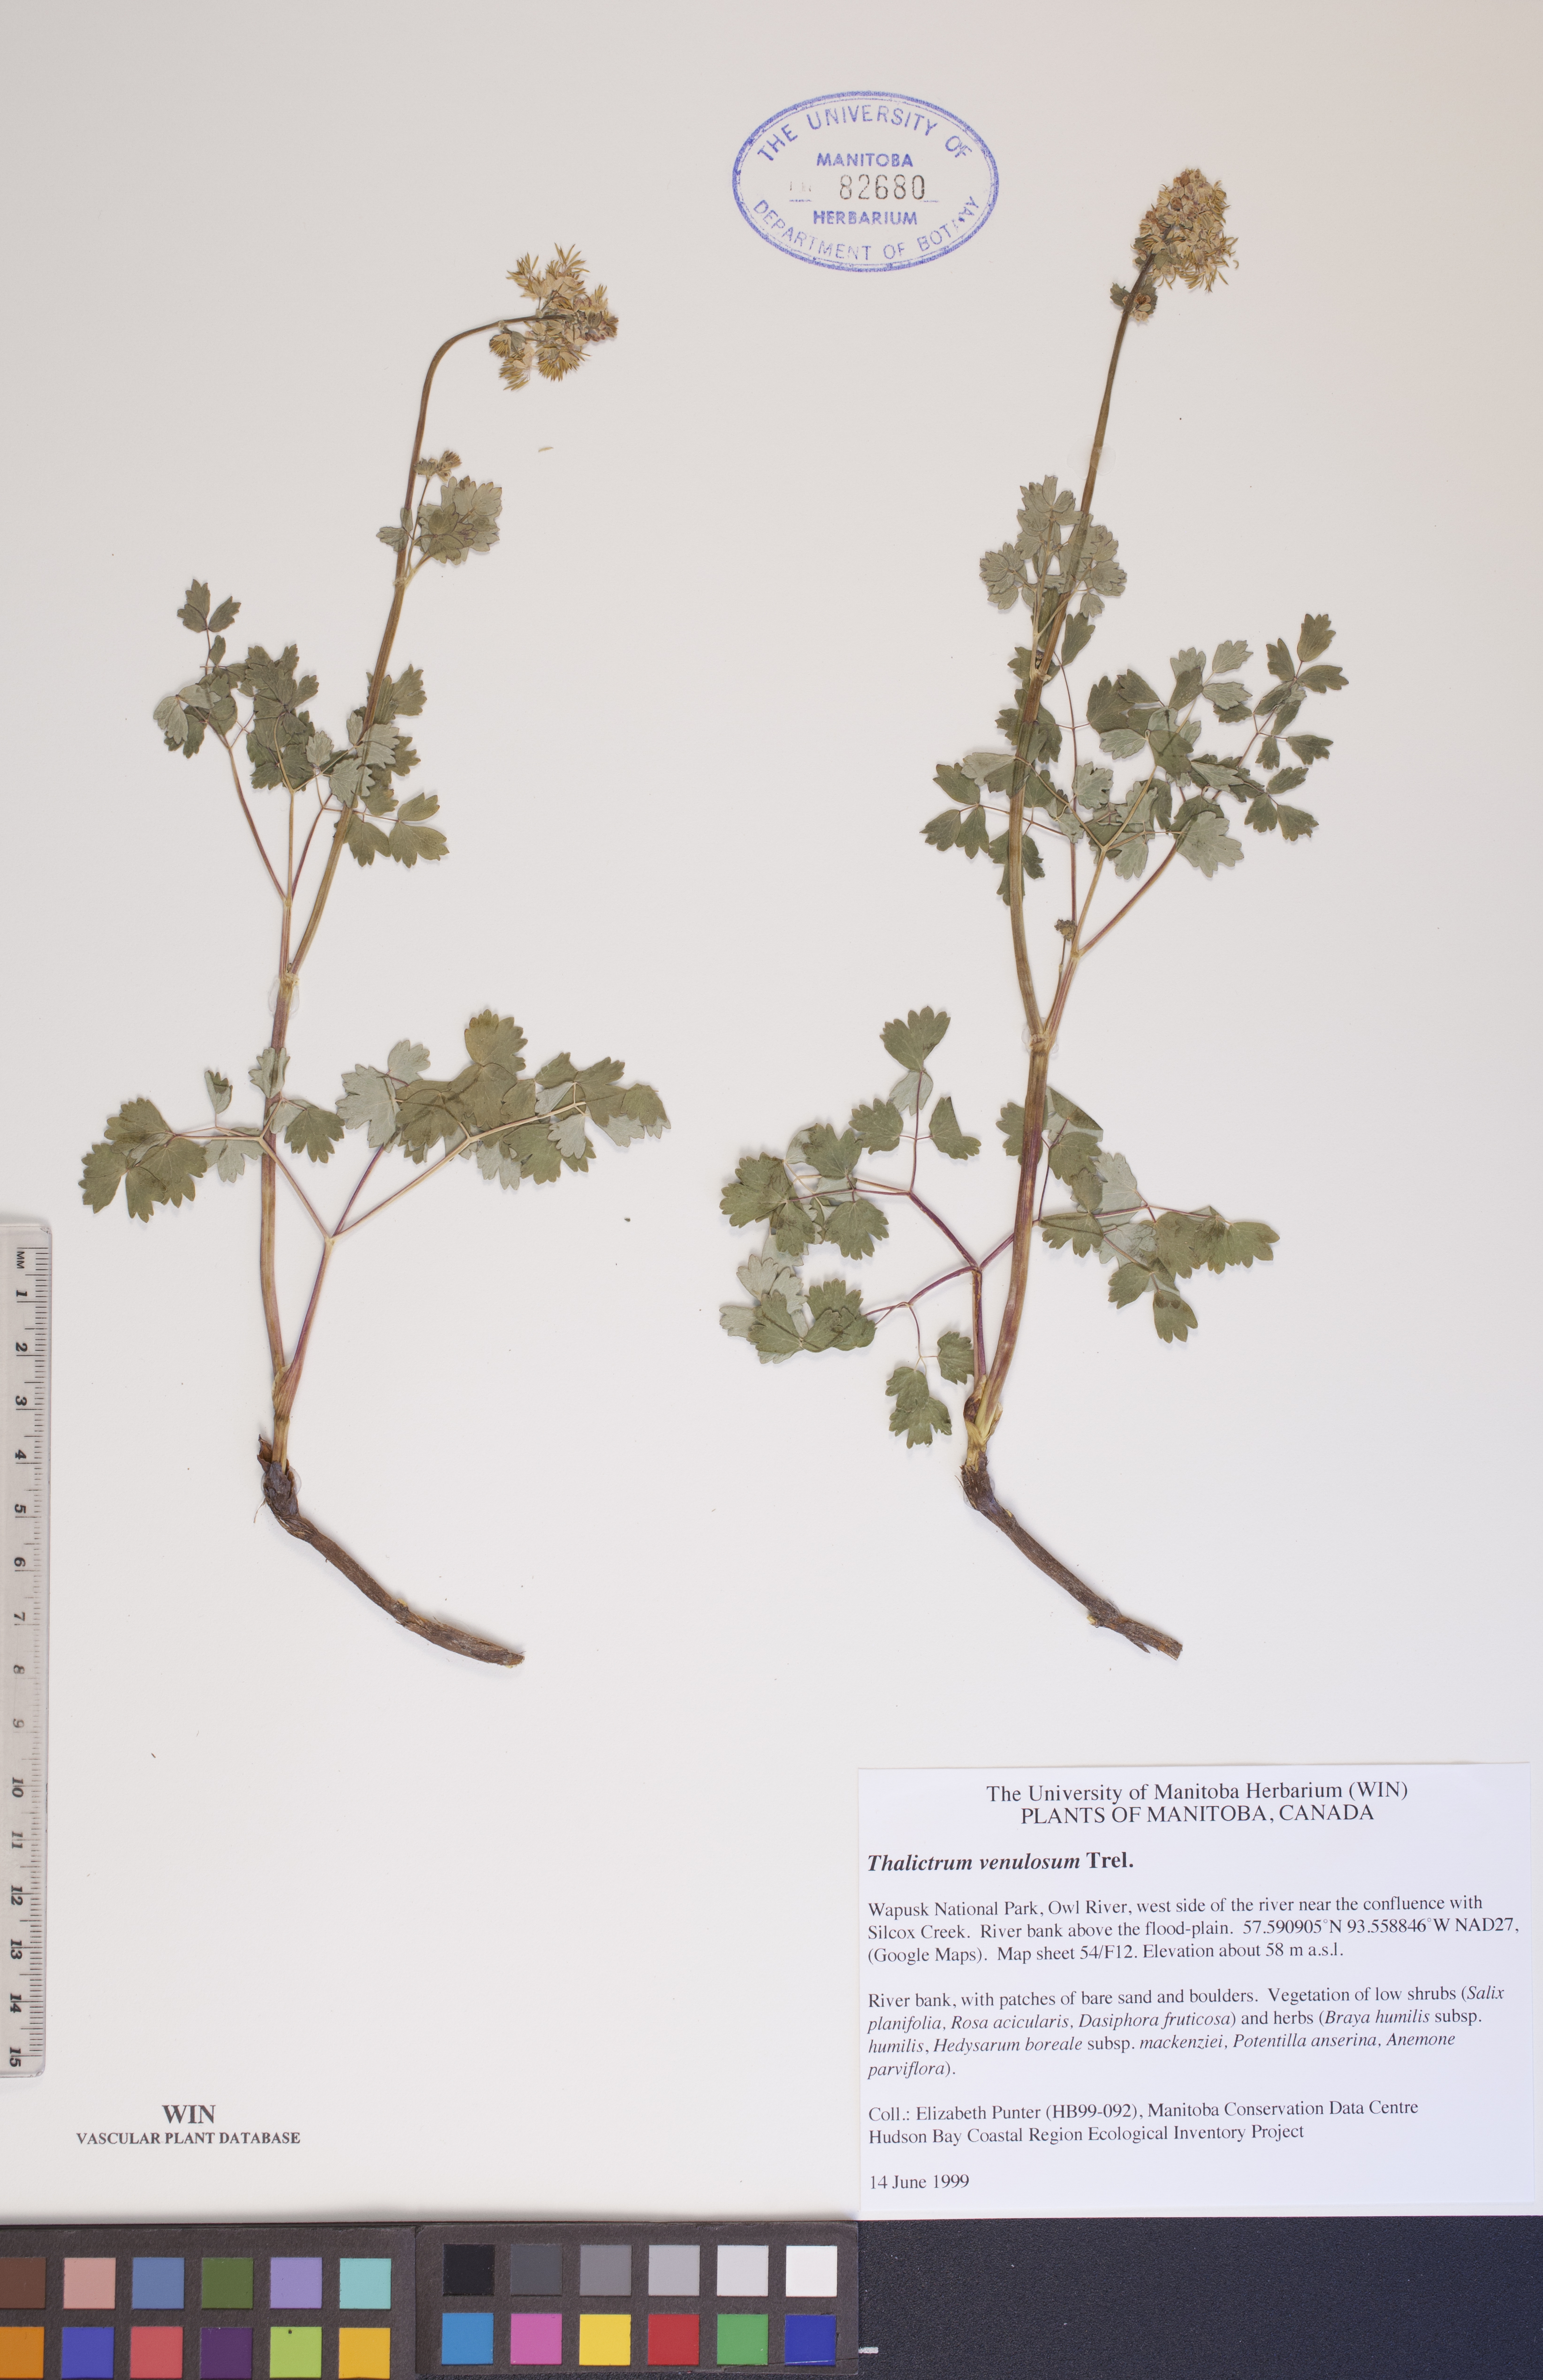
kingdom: Plantae
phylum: Tracheophyta
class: Magnoliopsida
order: Ranunculales
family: Ranunculaceae
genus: Thalictrum
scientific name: Thalictrum venulosum
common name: Early meadow-rue
